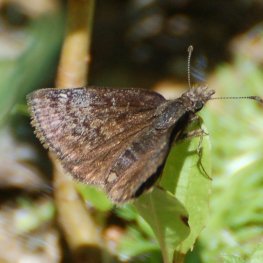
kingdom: Animalia
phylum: Arthropoda
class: Insecta
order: Lepidoptera
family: Hesperiidae
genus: Erynnis
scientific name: Erynnis icelus
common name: Dreamy Duskywing
